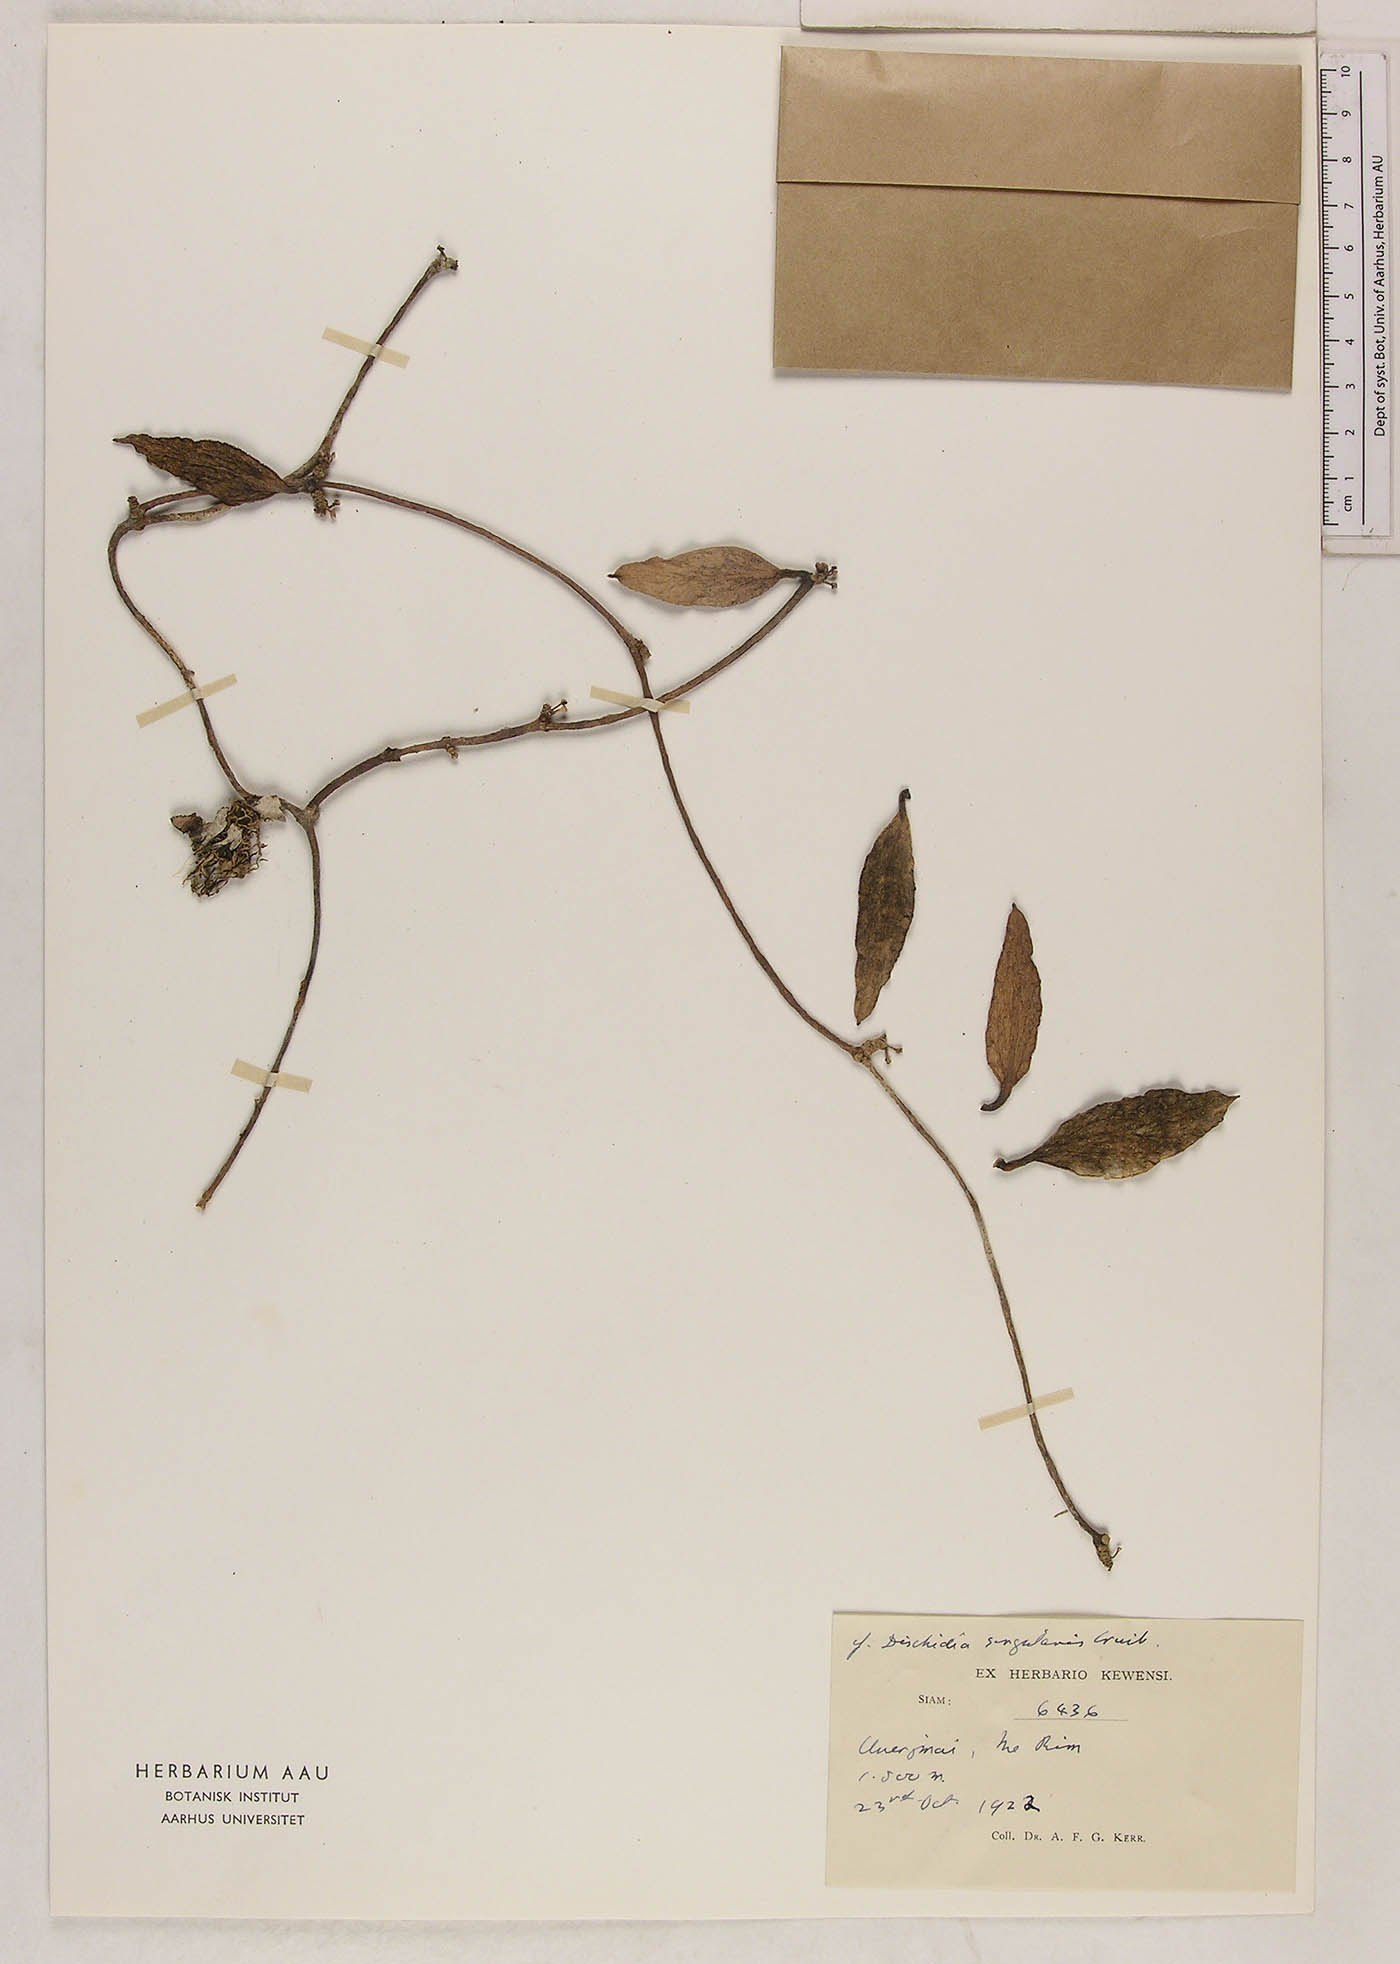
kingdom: Plantae
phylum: Tracheophyta
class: Magnoliopsida
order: Gentianales
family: Apocynaceae
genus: Dischidia
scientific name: Dischidia tricholoba
